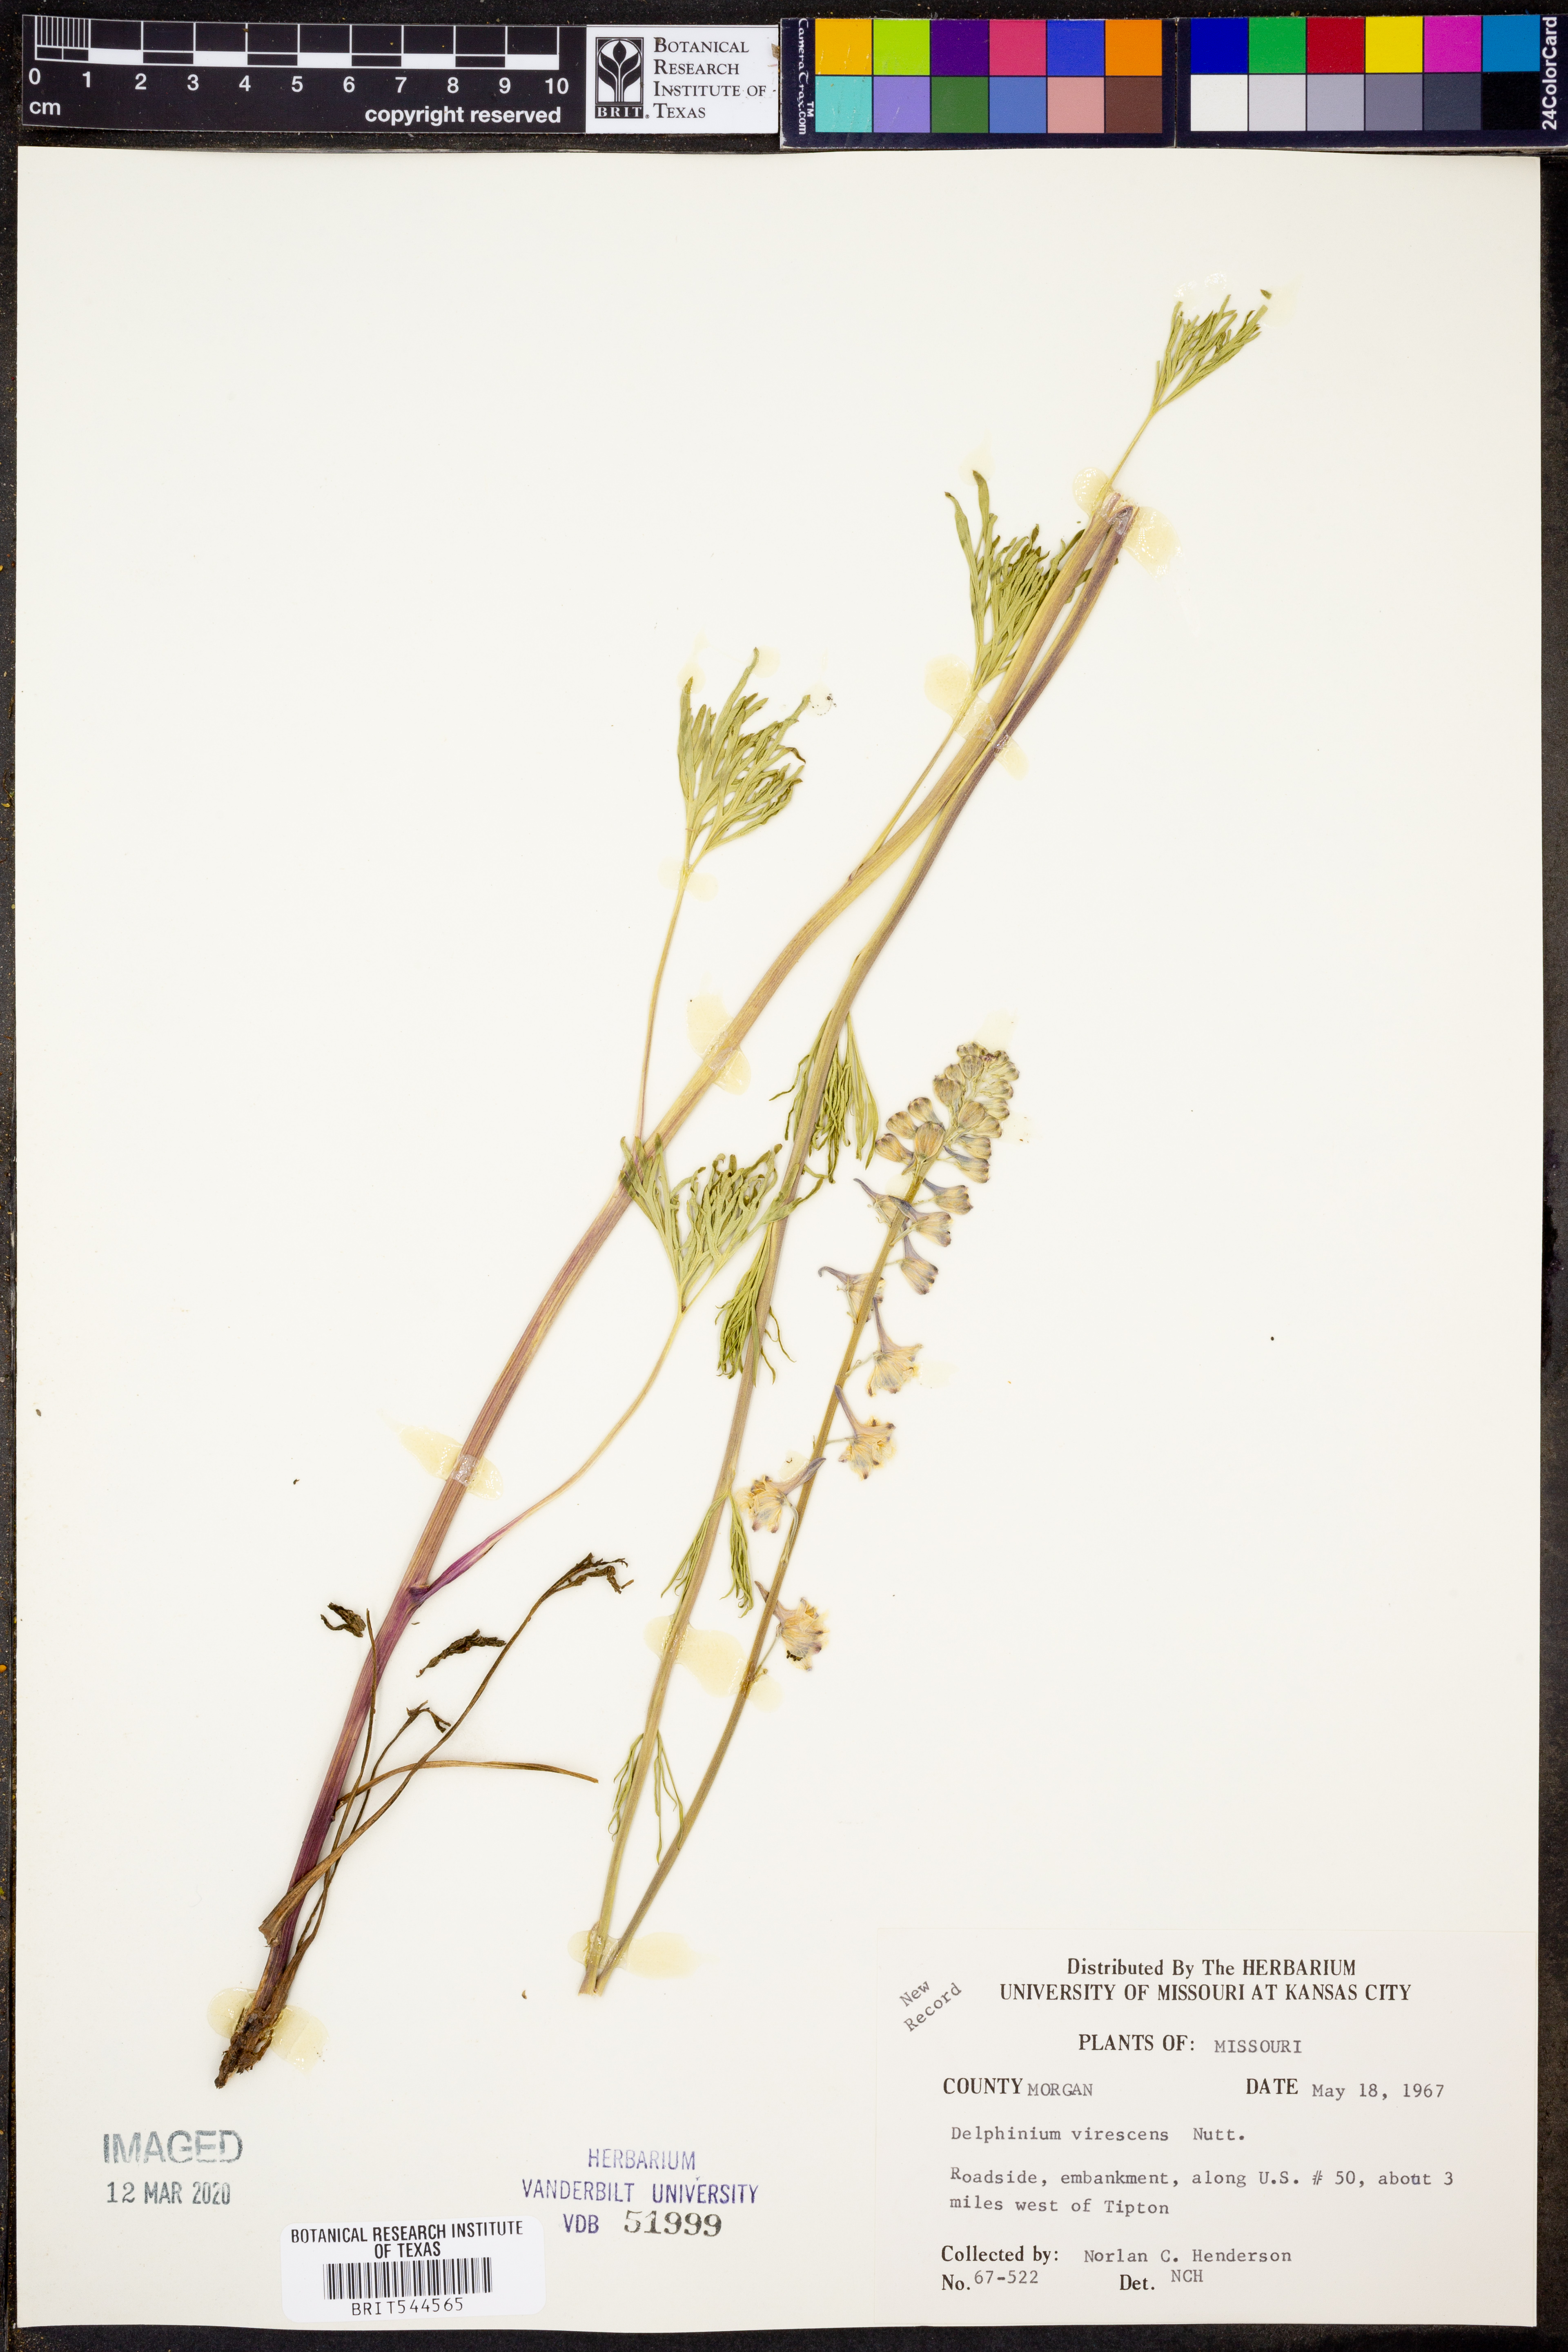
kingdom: Plantae
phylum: Tracheophyta
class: Magnoliopsida
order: Ranunculales
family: Ranunculaceae
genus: Delphinium
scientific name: Delphinium carolinianum
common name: Carolina larkspur
